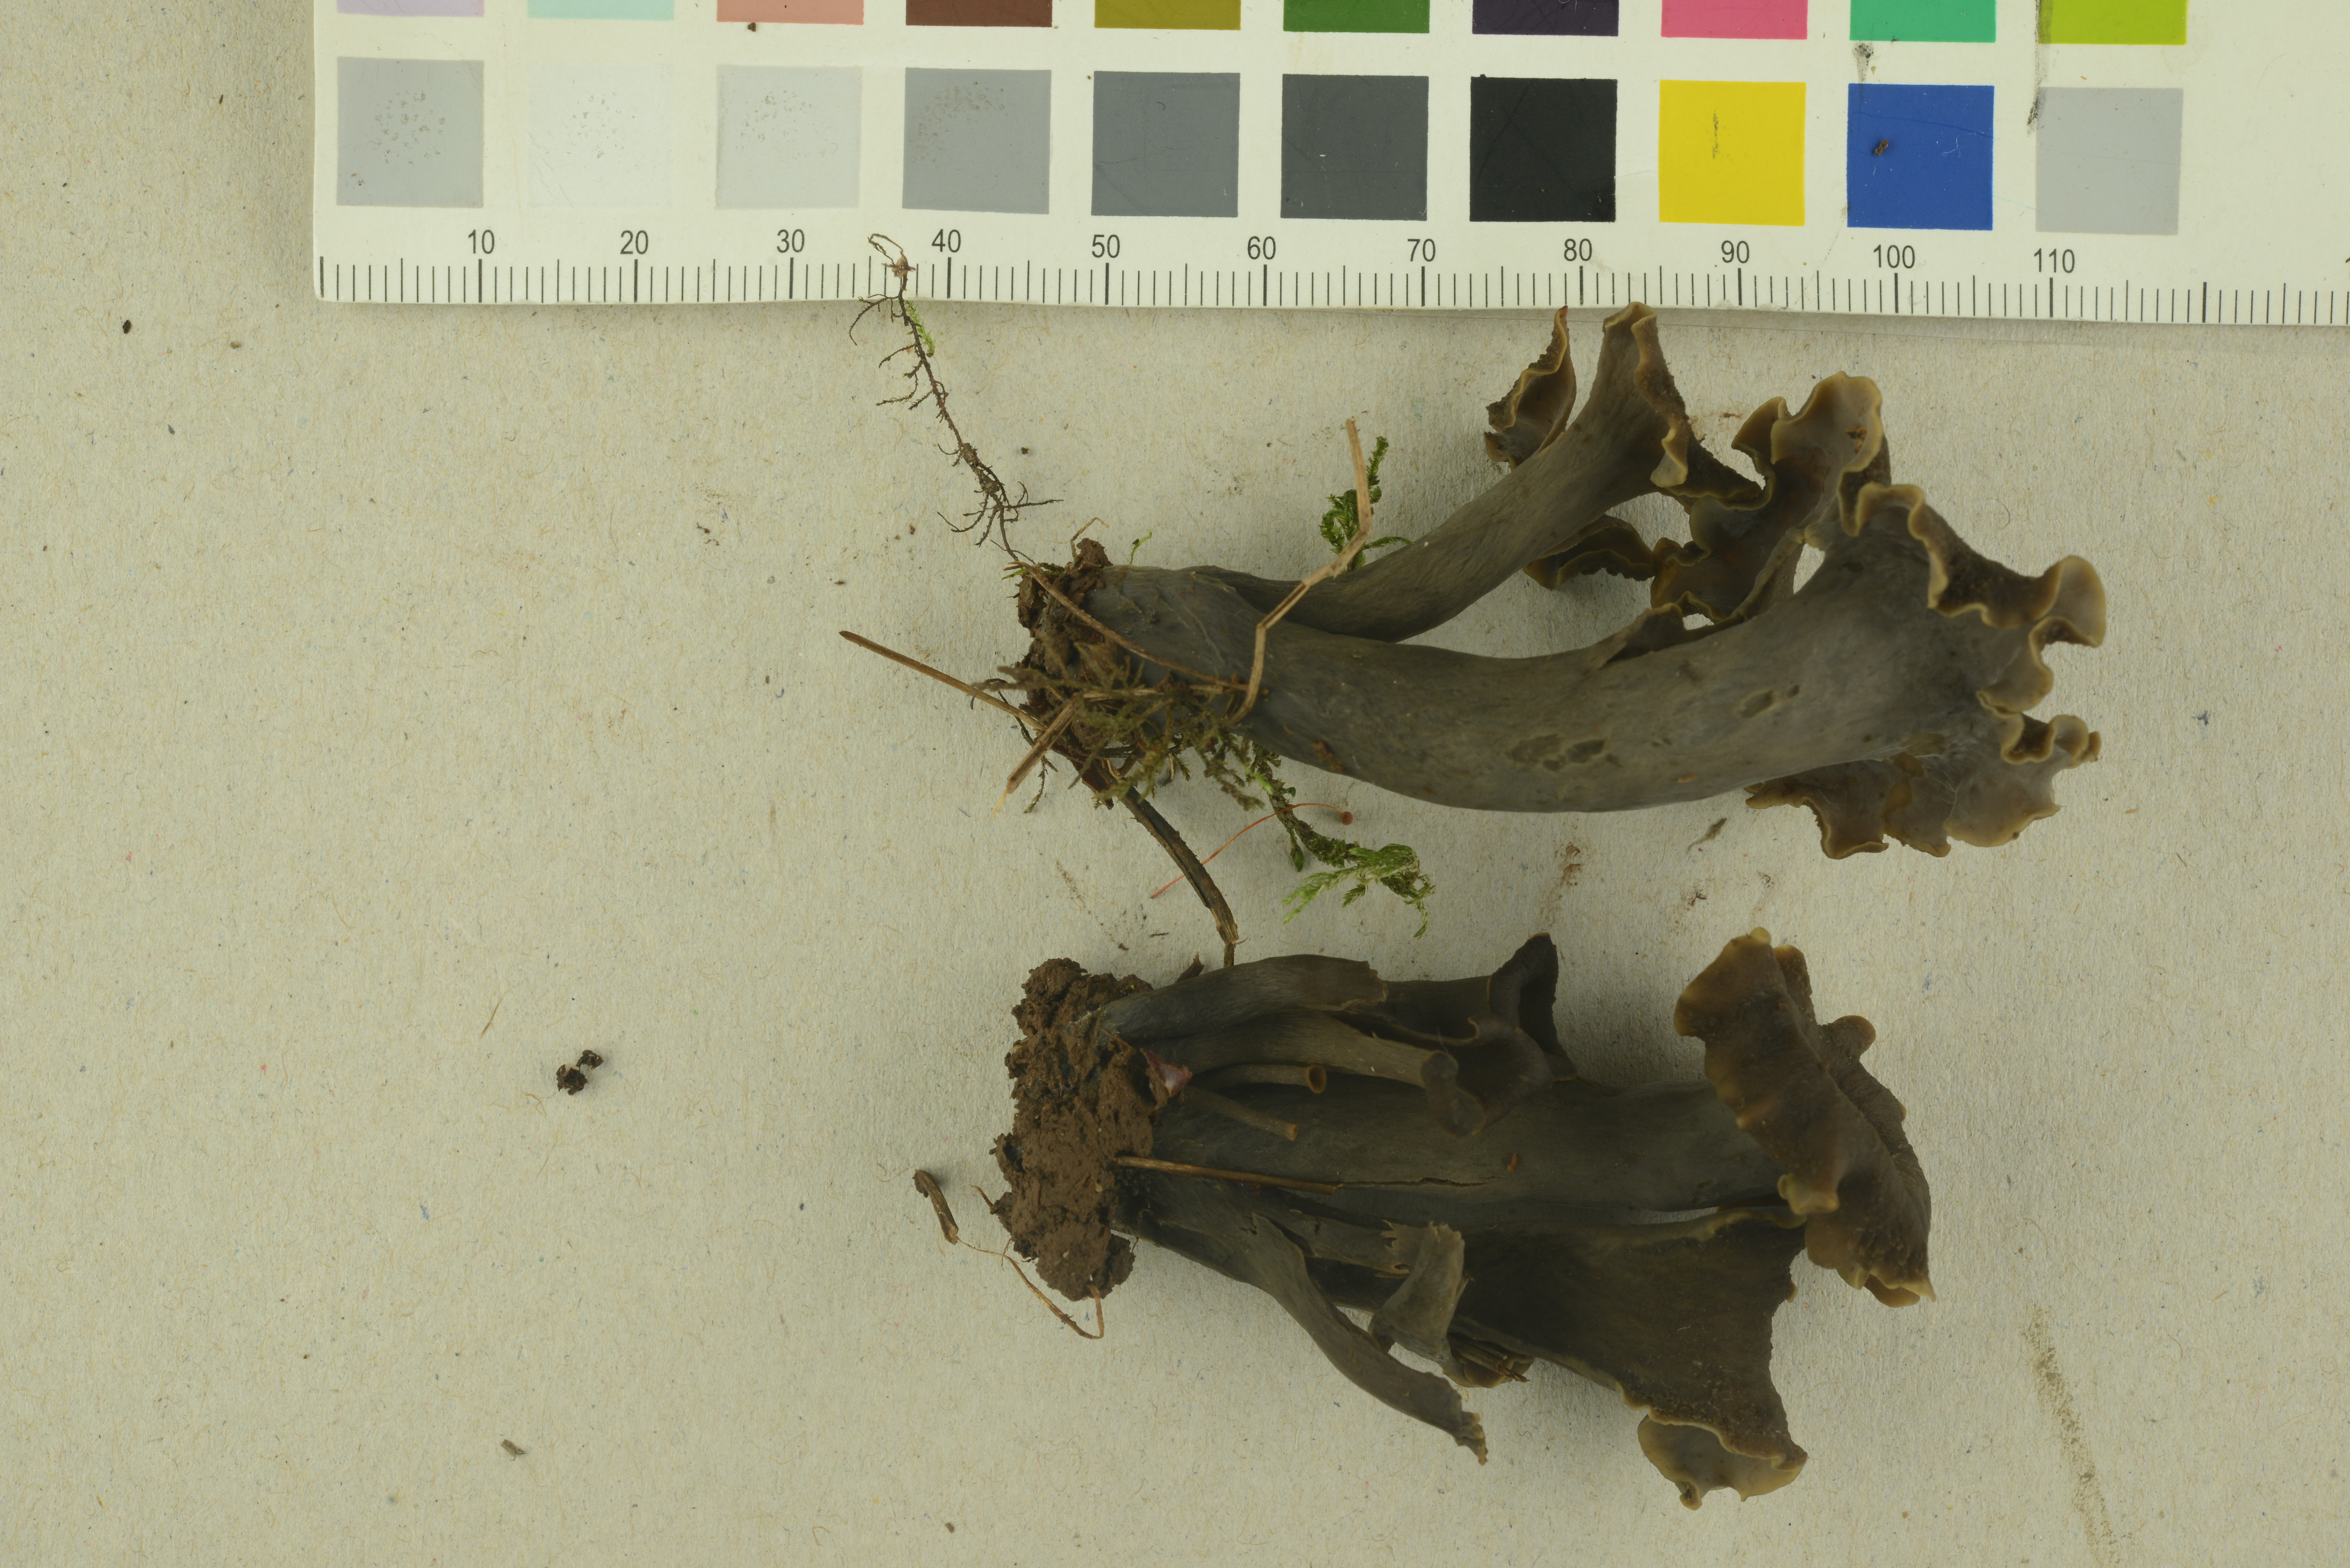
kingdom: Fungi
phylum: Basidiomycota
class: Agaricomycetes
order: Cantharellales
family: Hydnaceae
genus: Craterellus
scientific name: Craterellus cornucopioides
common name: Horn of plenty
